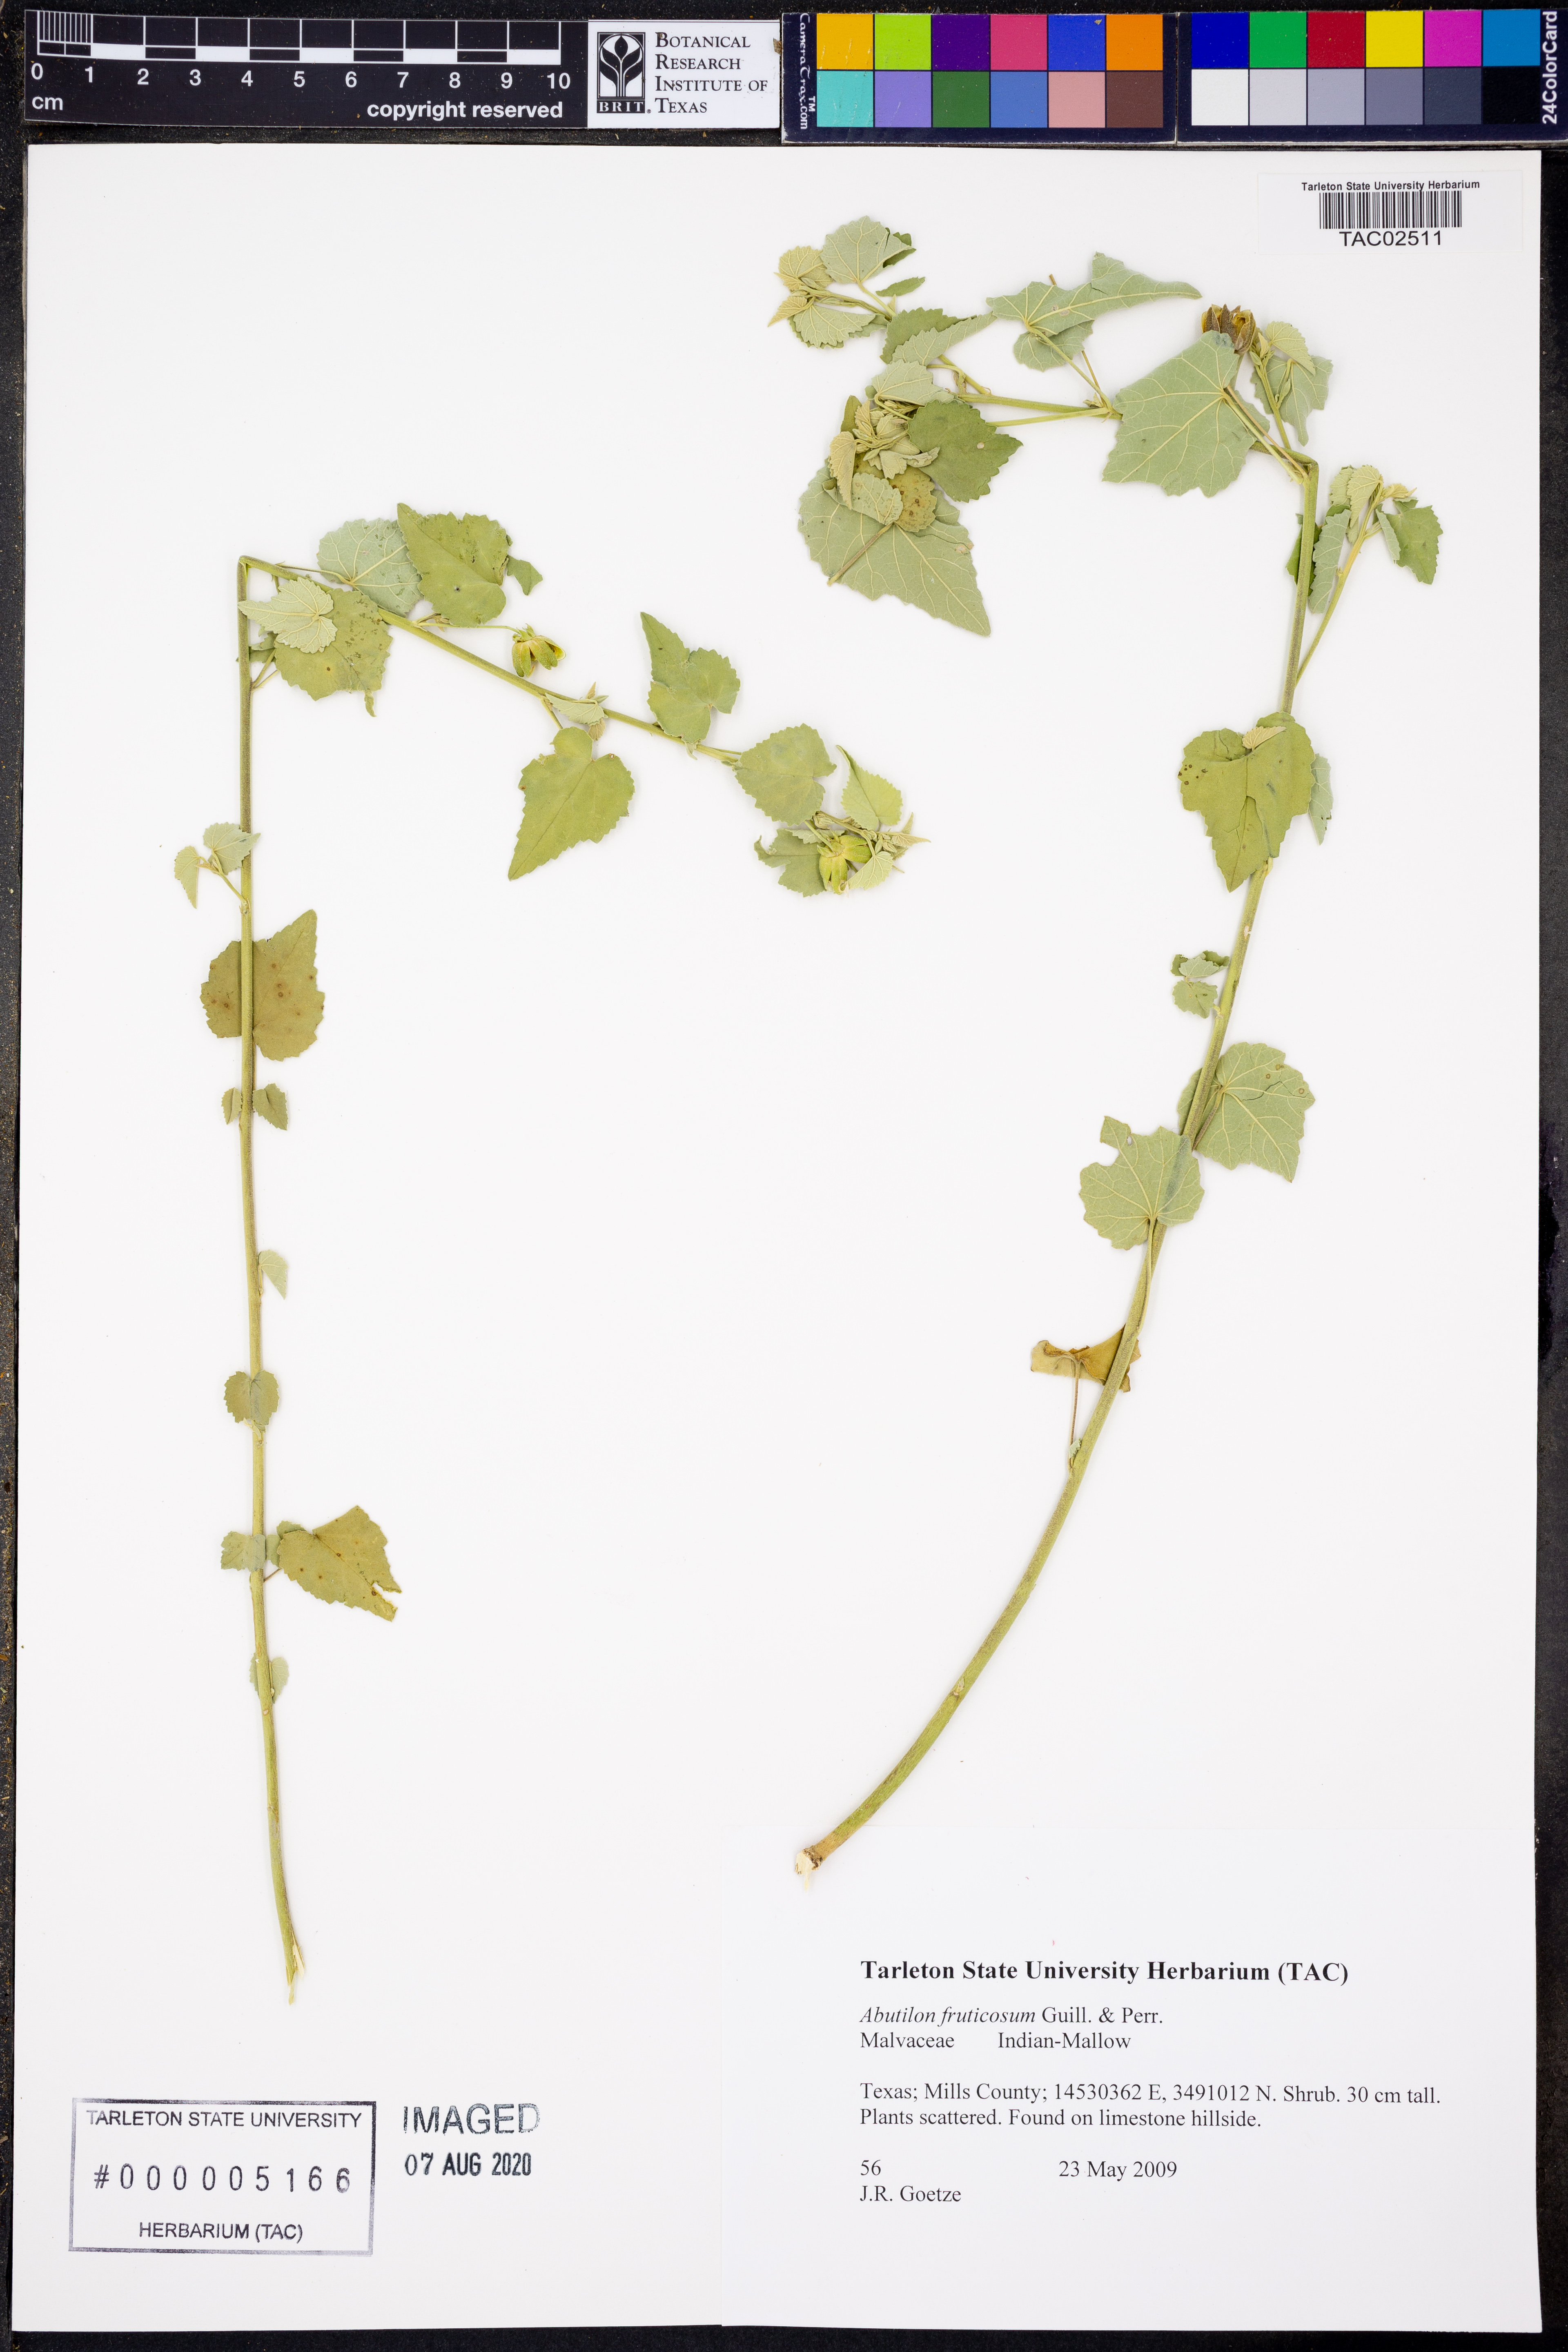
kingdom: Plantae
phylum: Tracheophyta
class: Magnoliopsida
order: Malvales
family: Malvaceae
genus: Abutilon
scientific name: Abutilon fruticosum
